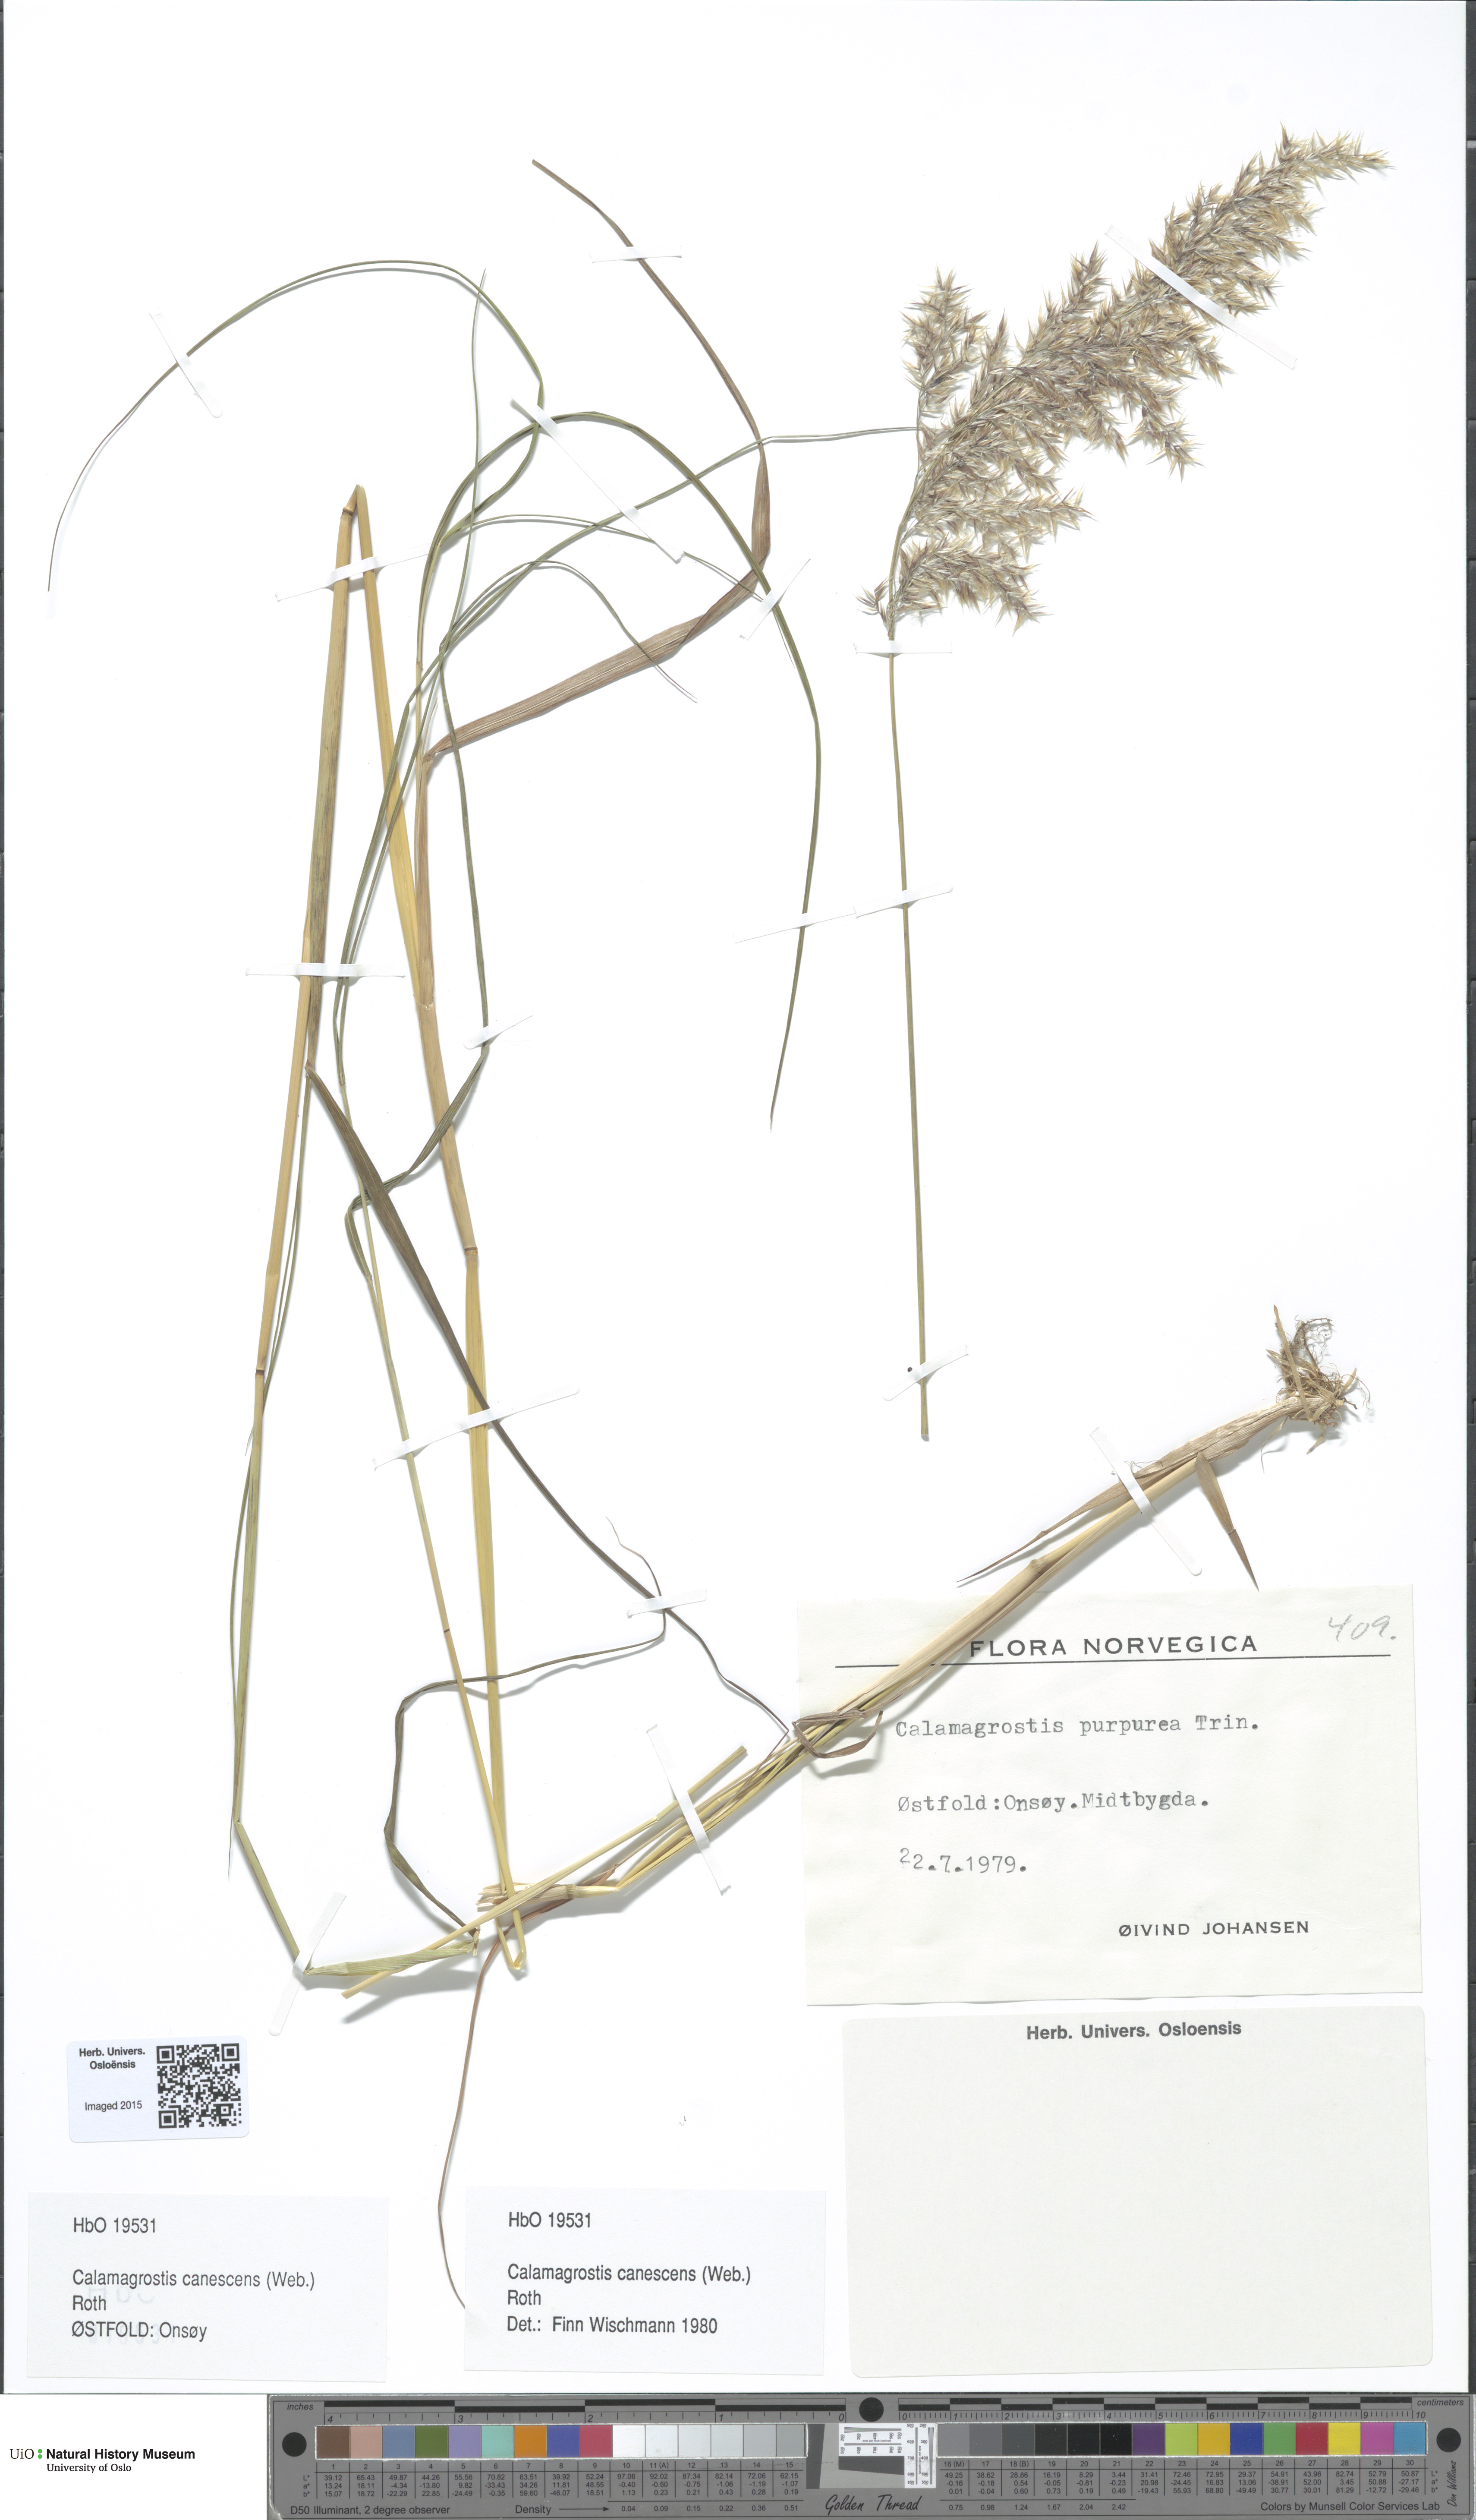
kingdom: Plantae
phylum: Tracheophyta
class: Liliopsida
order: Poales
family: Poaceae
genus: Calamagrostis
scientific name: Calamagrostis canescens
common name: Purple small-reed
